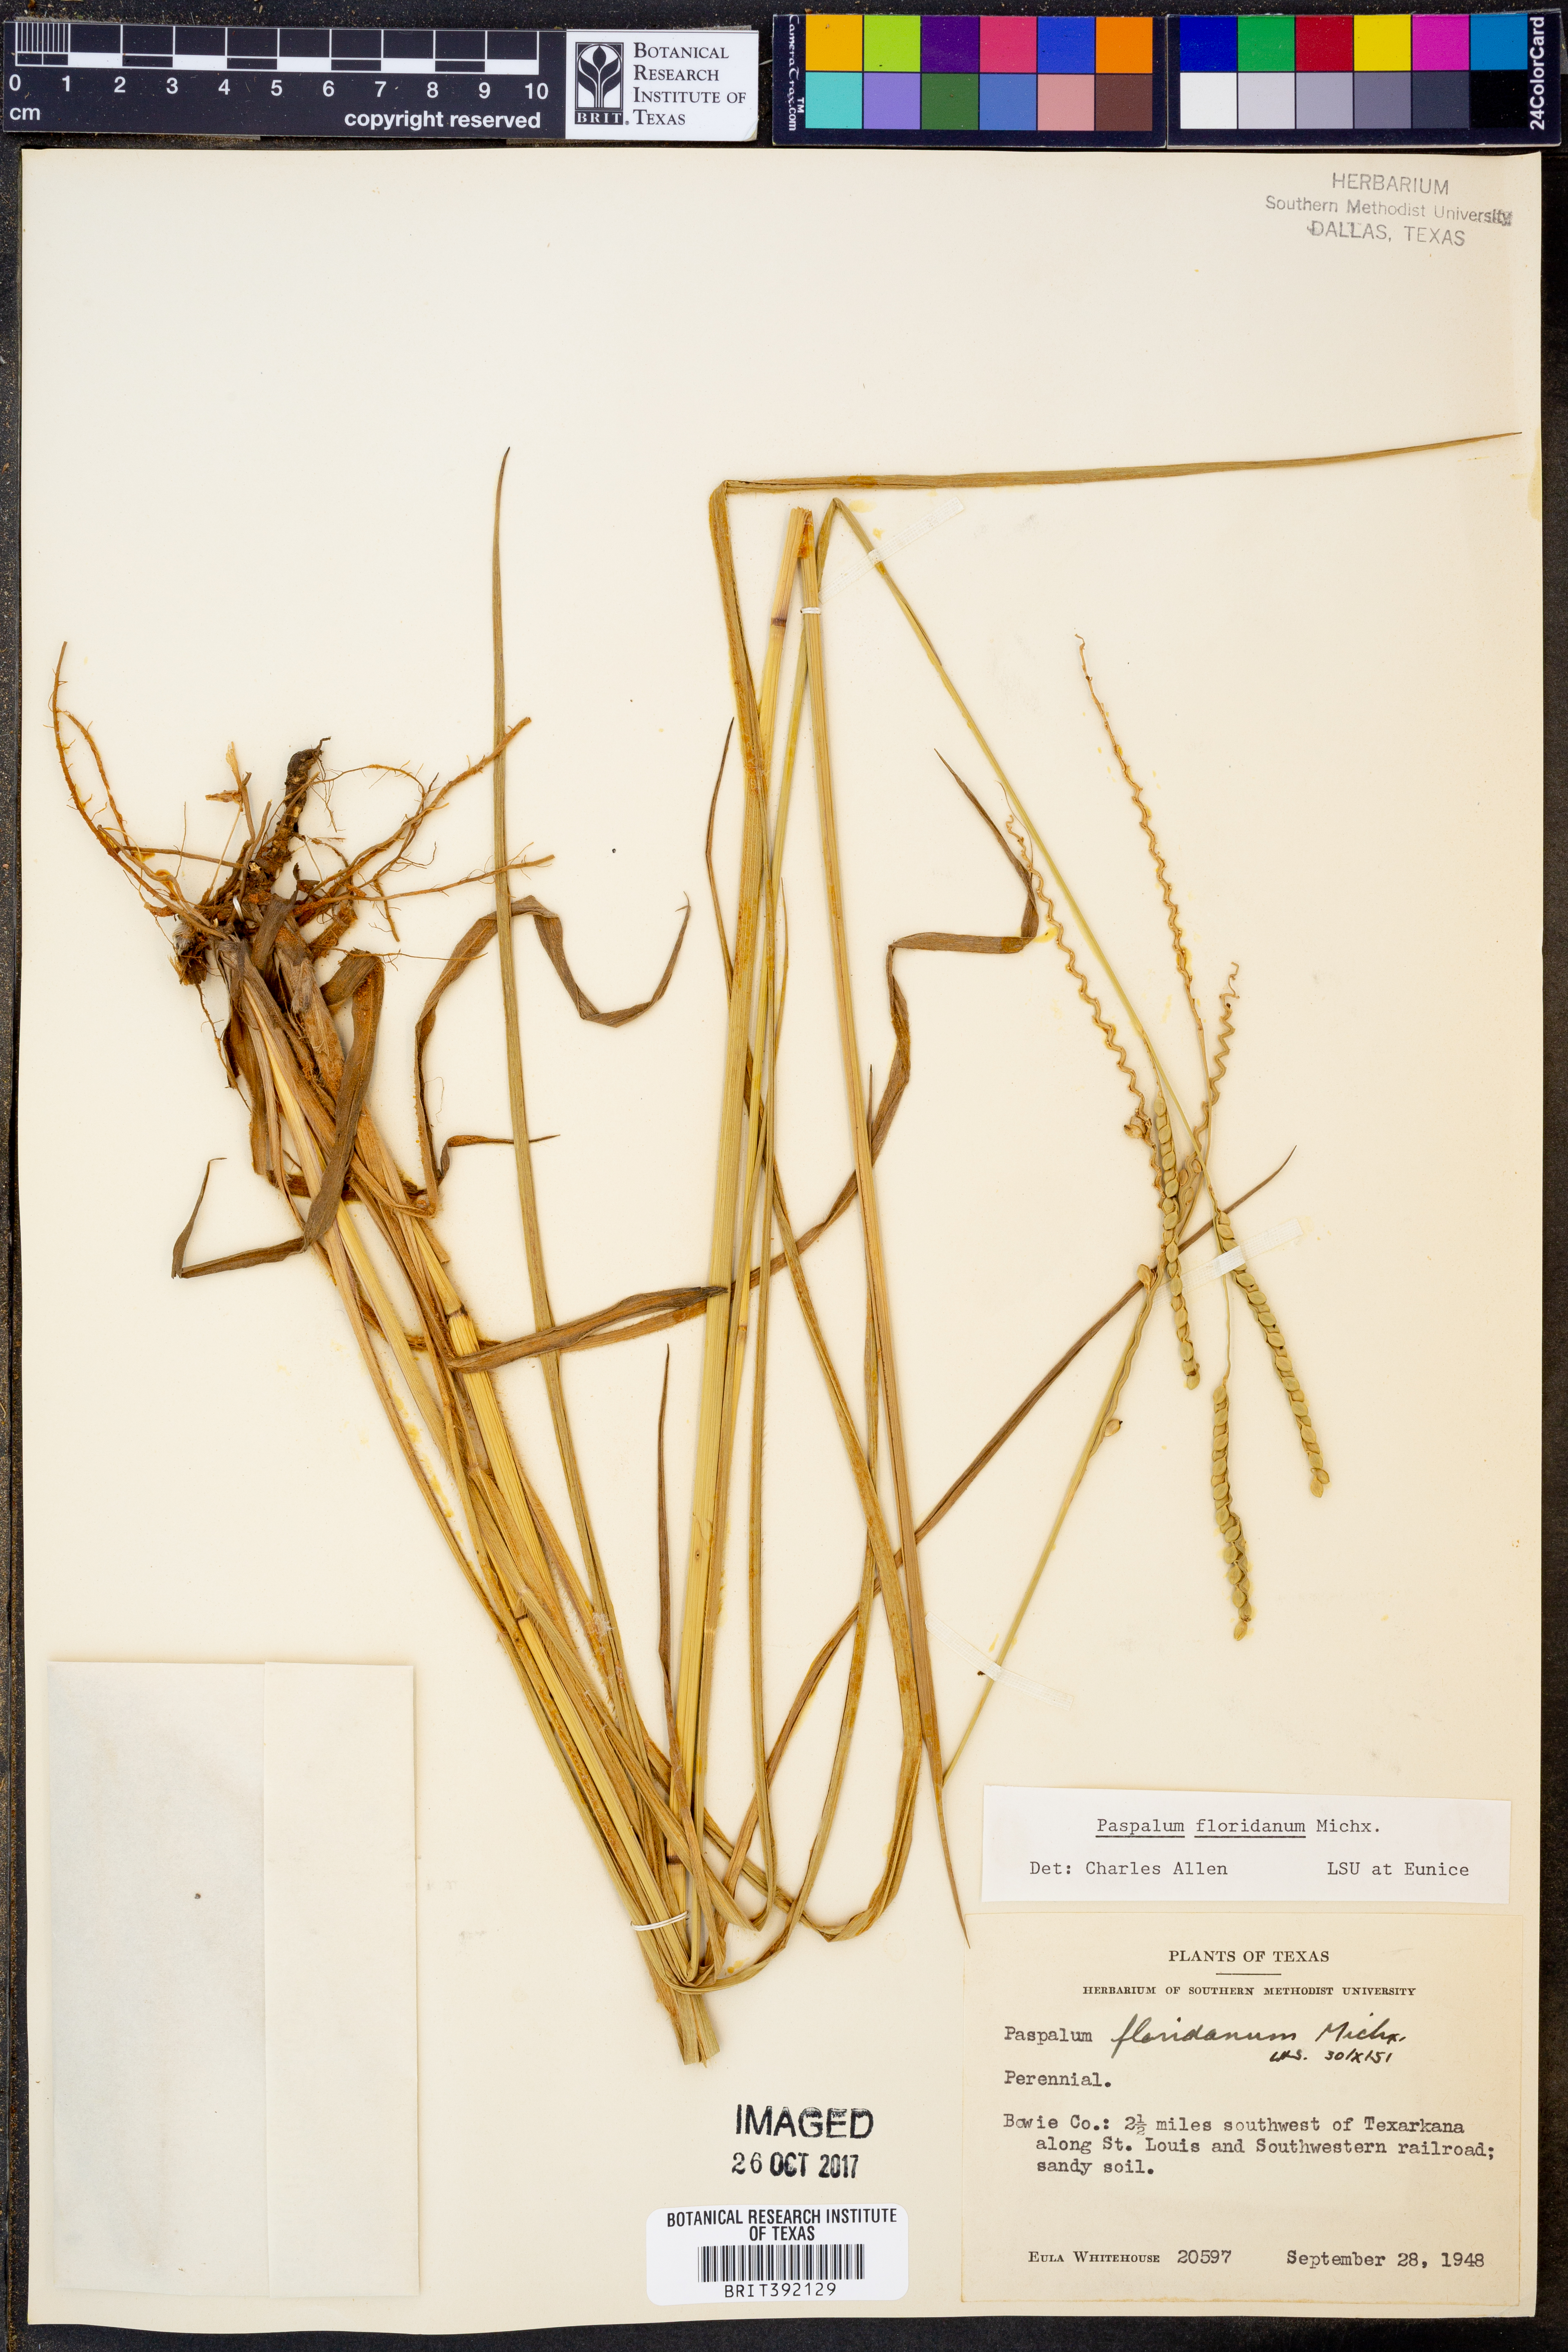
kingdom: Plantae
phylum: Tracheophyta
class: Liliopsida
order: Poales
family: Poaceae
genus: Paspalum
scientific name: Paspalum floridanum
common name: Florida paspalum
